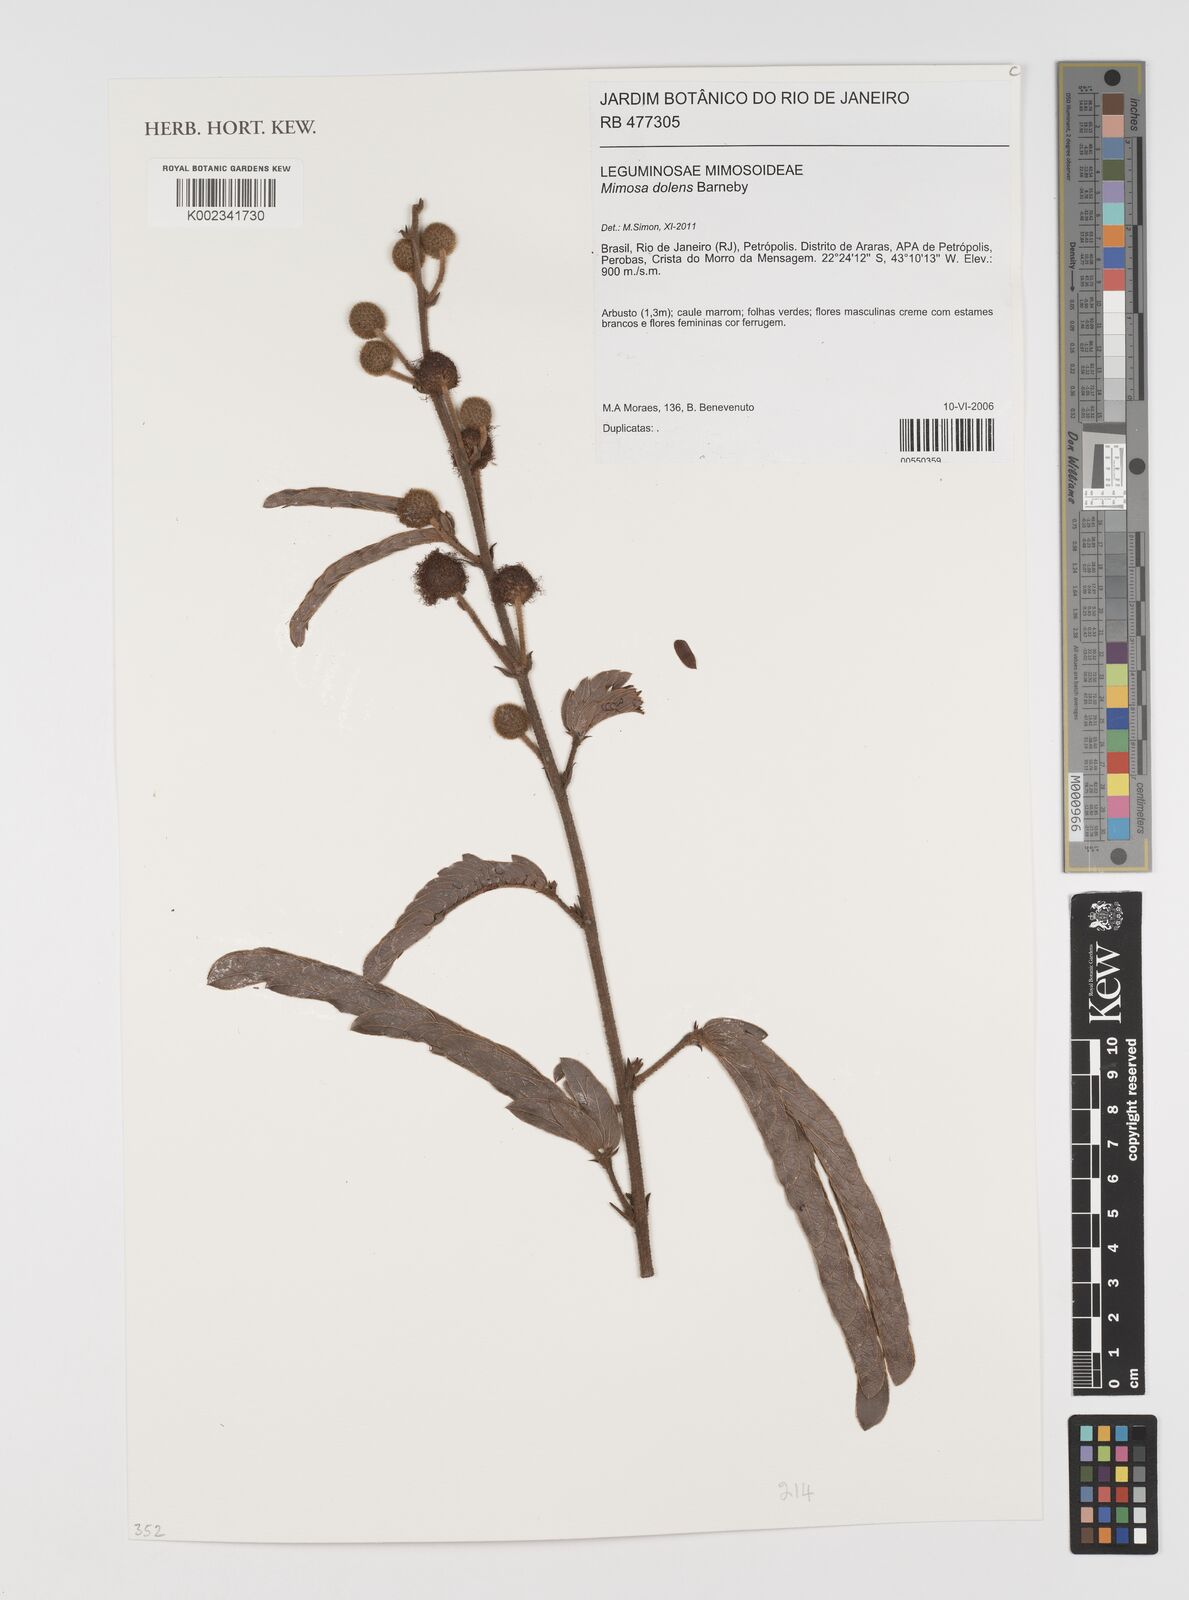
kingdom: Plantae
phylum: Tracheophyta
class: Magnoliopsida
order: Fabales
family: Fabaceae
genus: Mimosa
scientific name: Mimosa dolens
